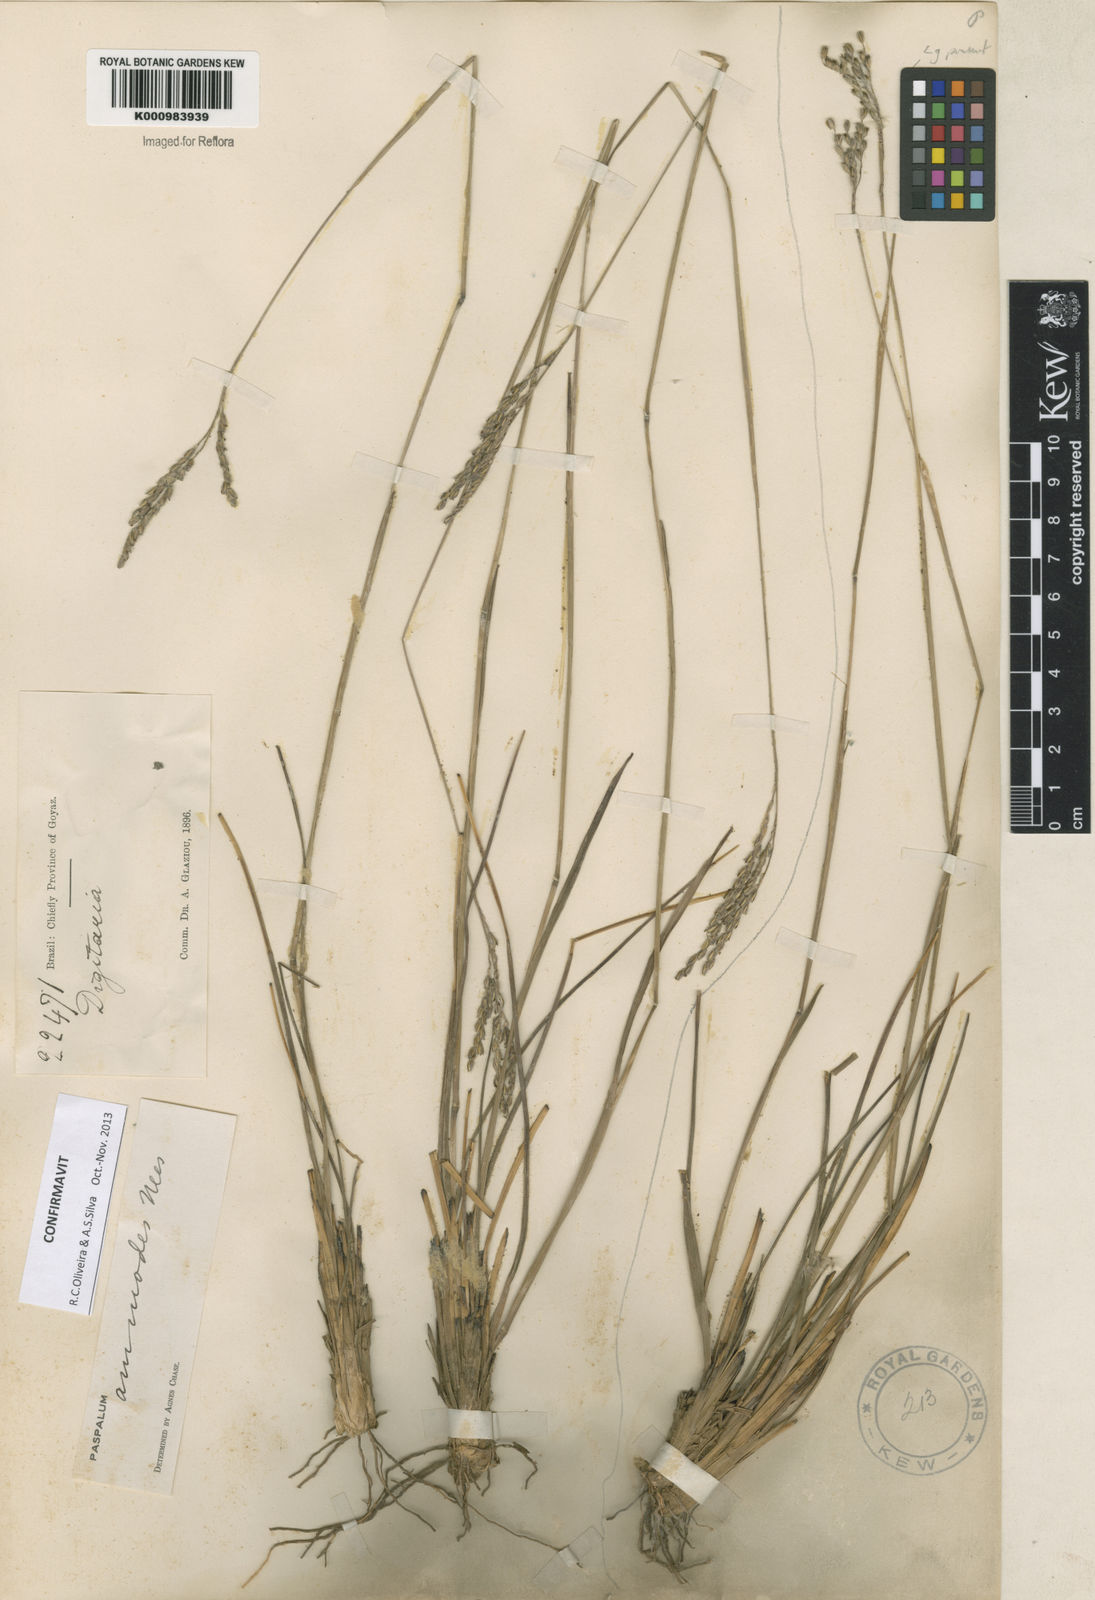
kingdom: Plantae
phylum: Tracheophyta
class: Liliopsida
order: Poales
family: Poaceae
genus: Paspalum
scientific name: Paspalum ammodes
